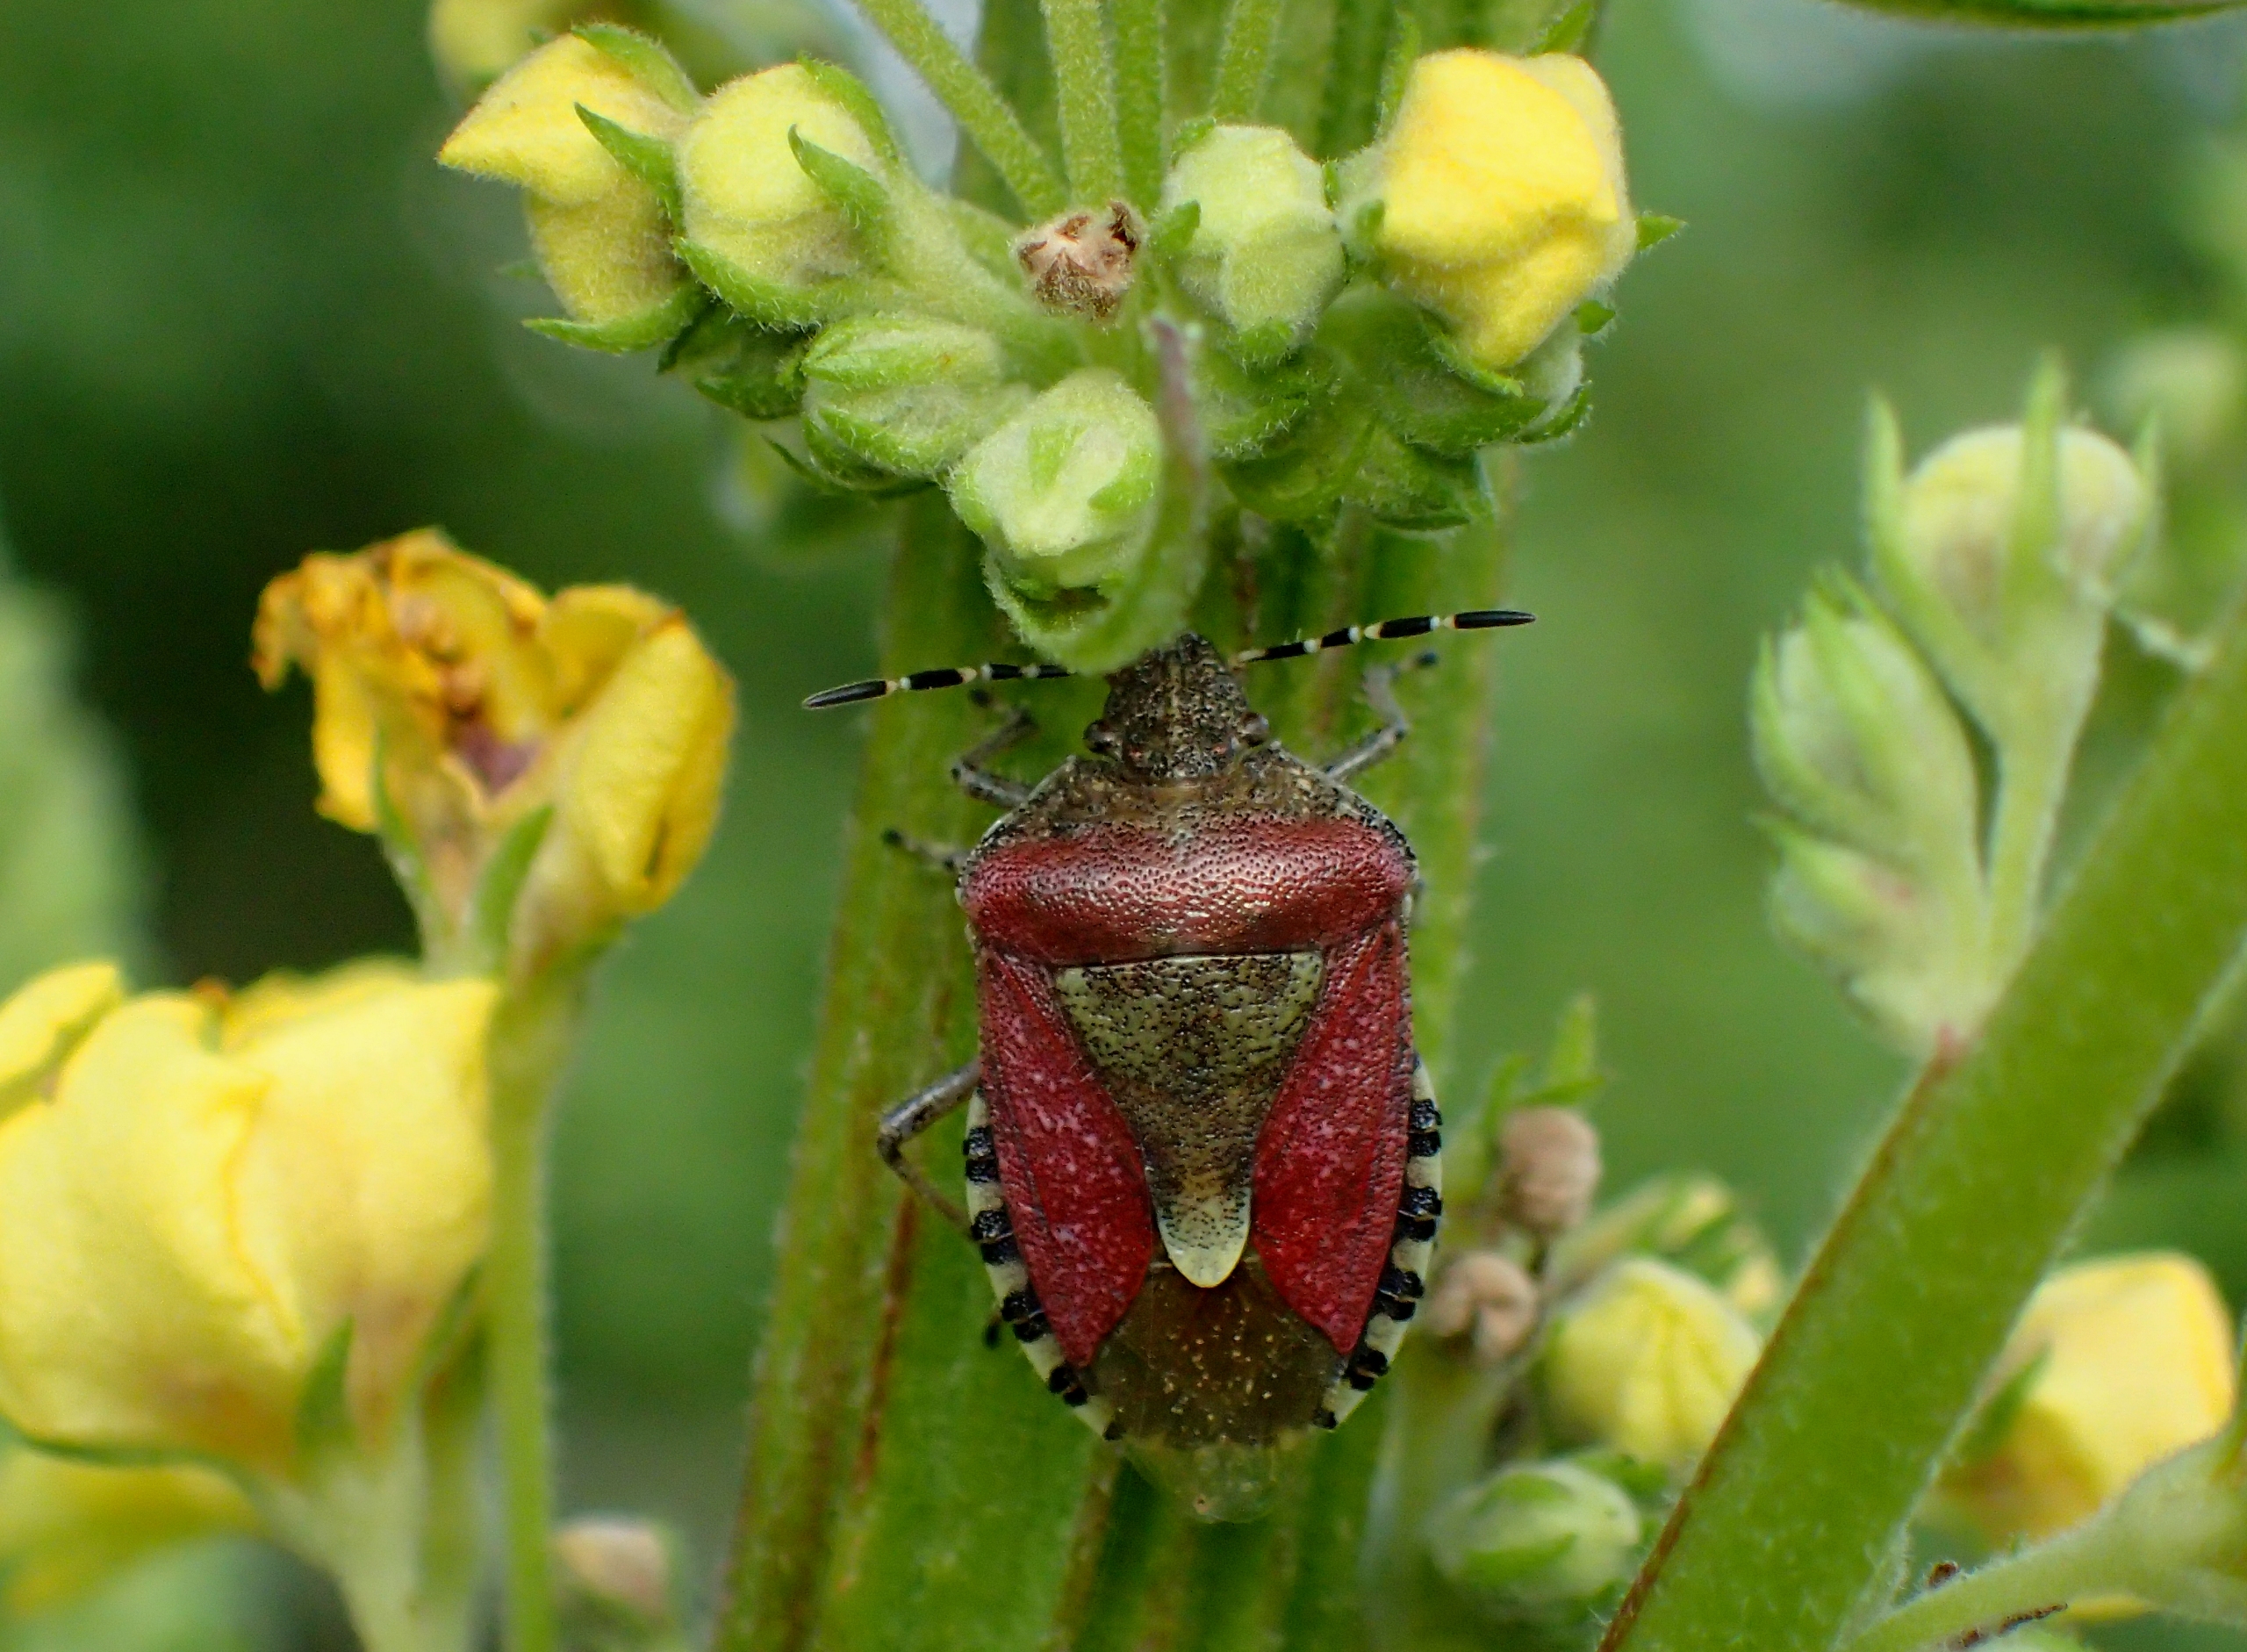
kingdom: Animalia
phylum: Arthropoda
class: Insecta
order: Hemiptera
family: Pentatomidae
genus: Dolycoris
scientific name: Dolycoris baccarum
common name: Almindelig bærtæge
